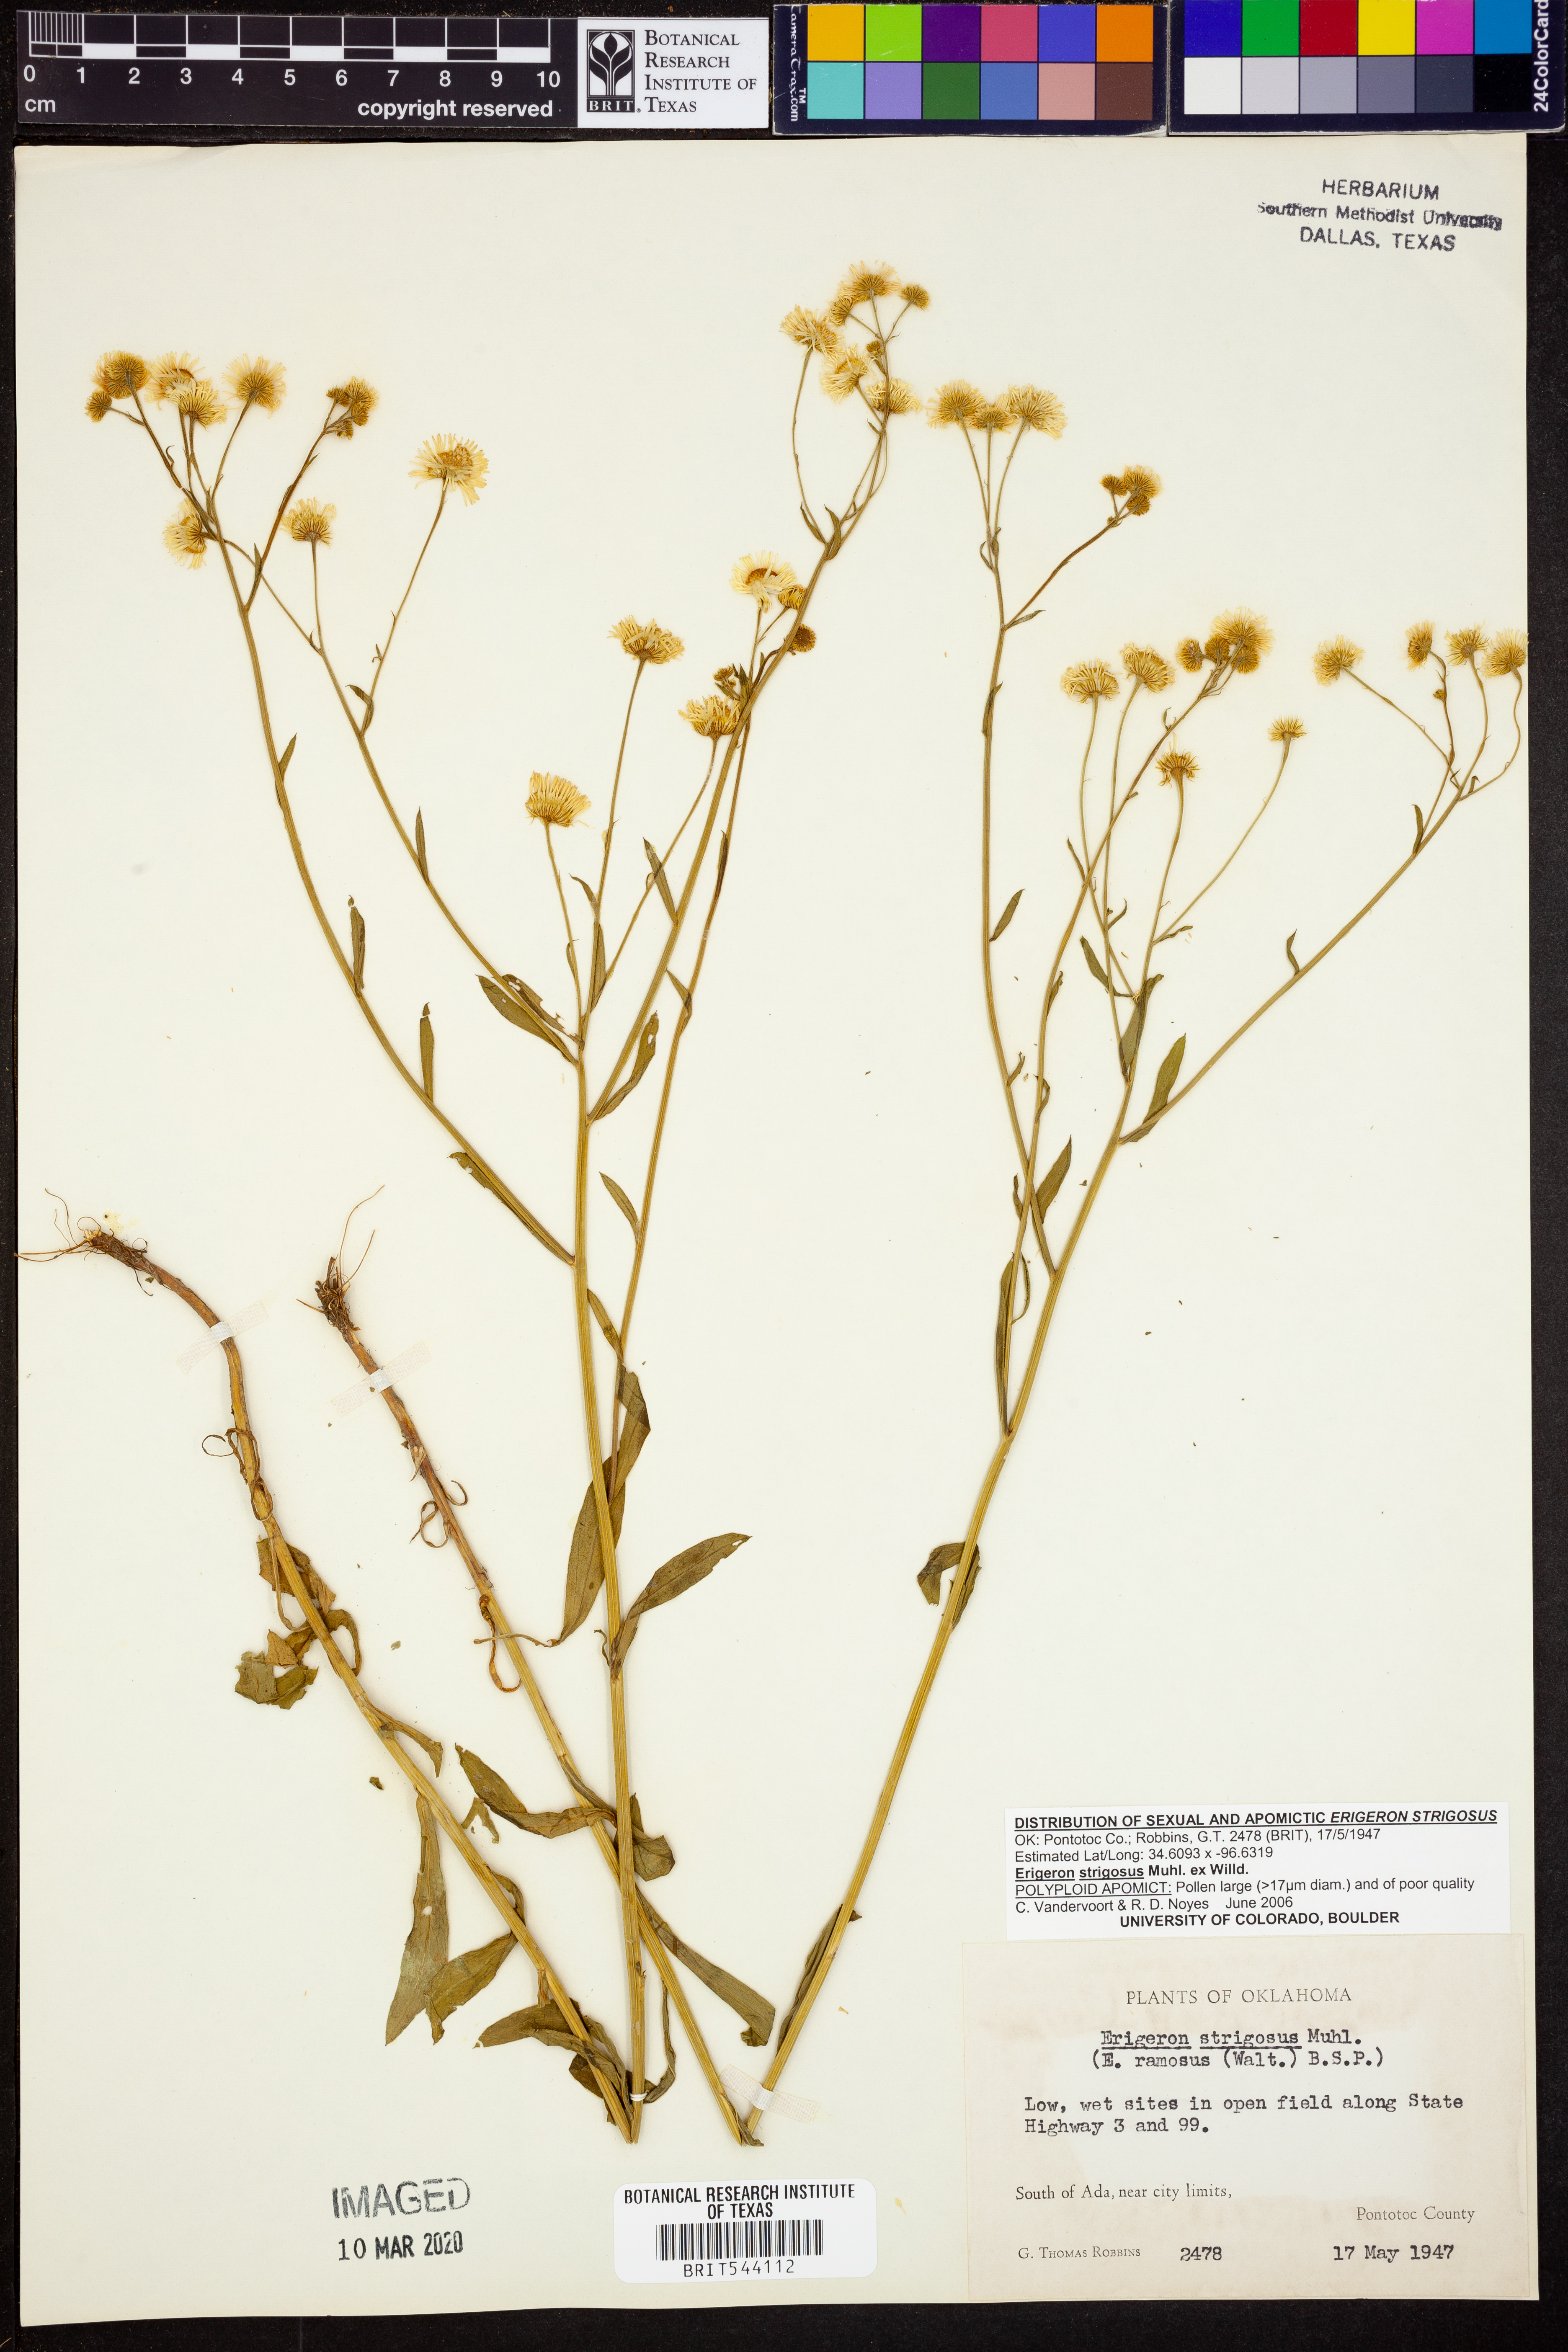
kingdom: Plantae
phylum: Tracheophyta
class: Magnoliopsida
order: Asterales
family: Asteraceae
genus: Erigeron
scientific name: Erigeron strigosus
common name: Common eastern fleabane
